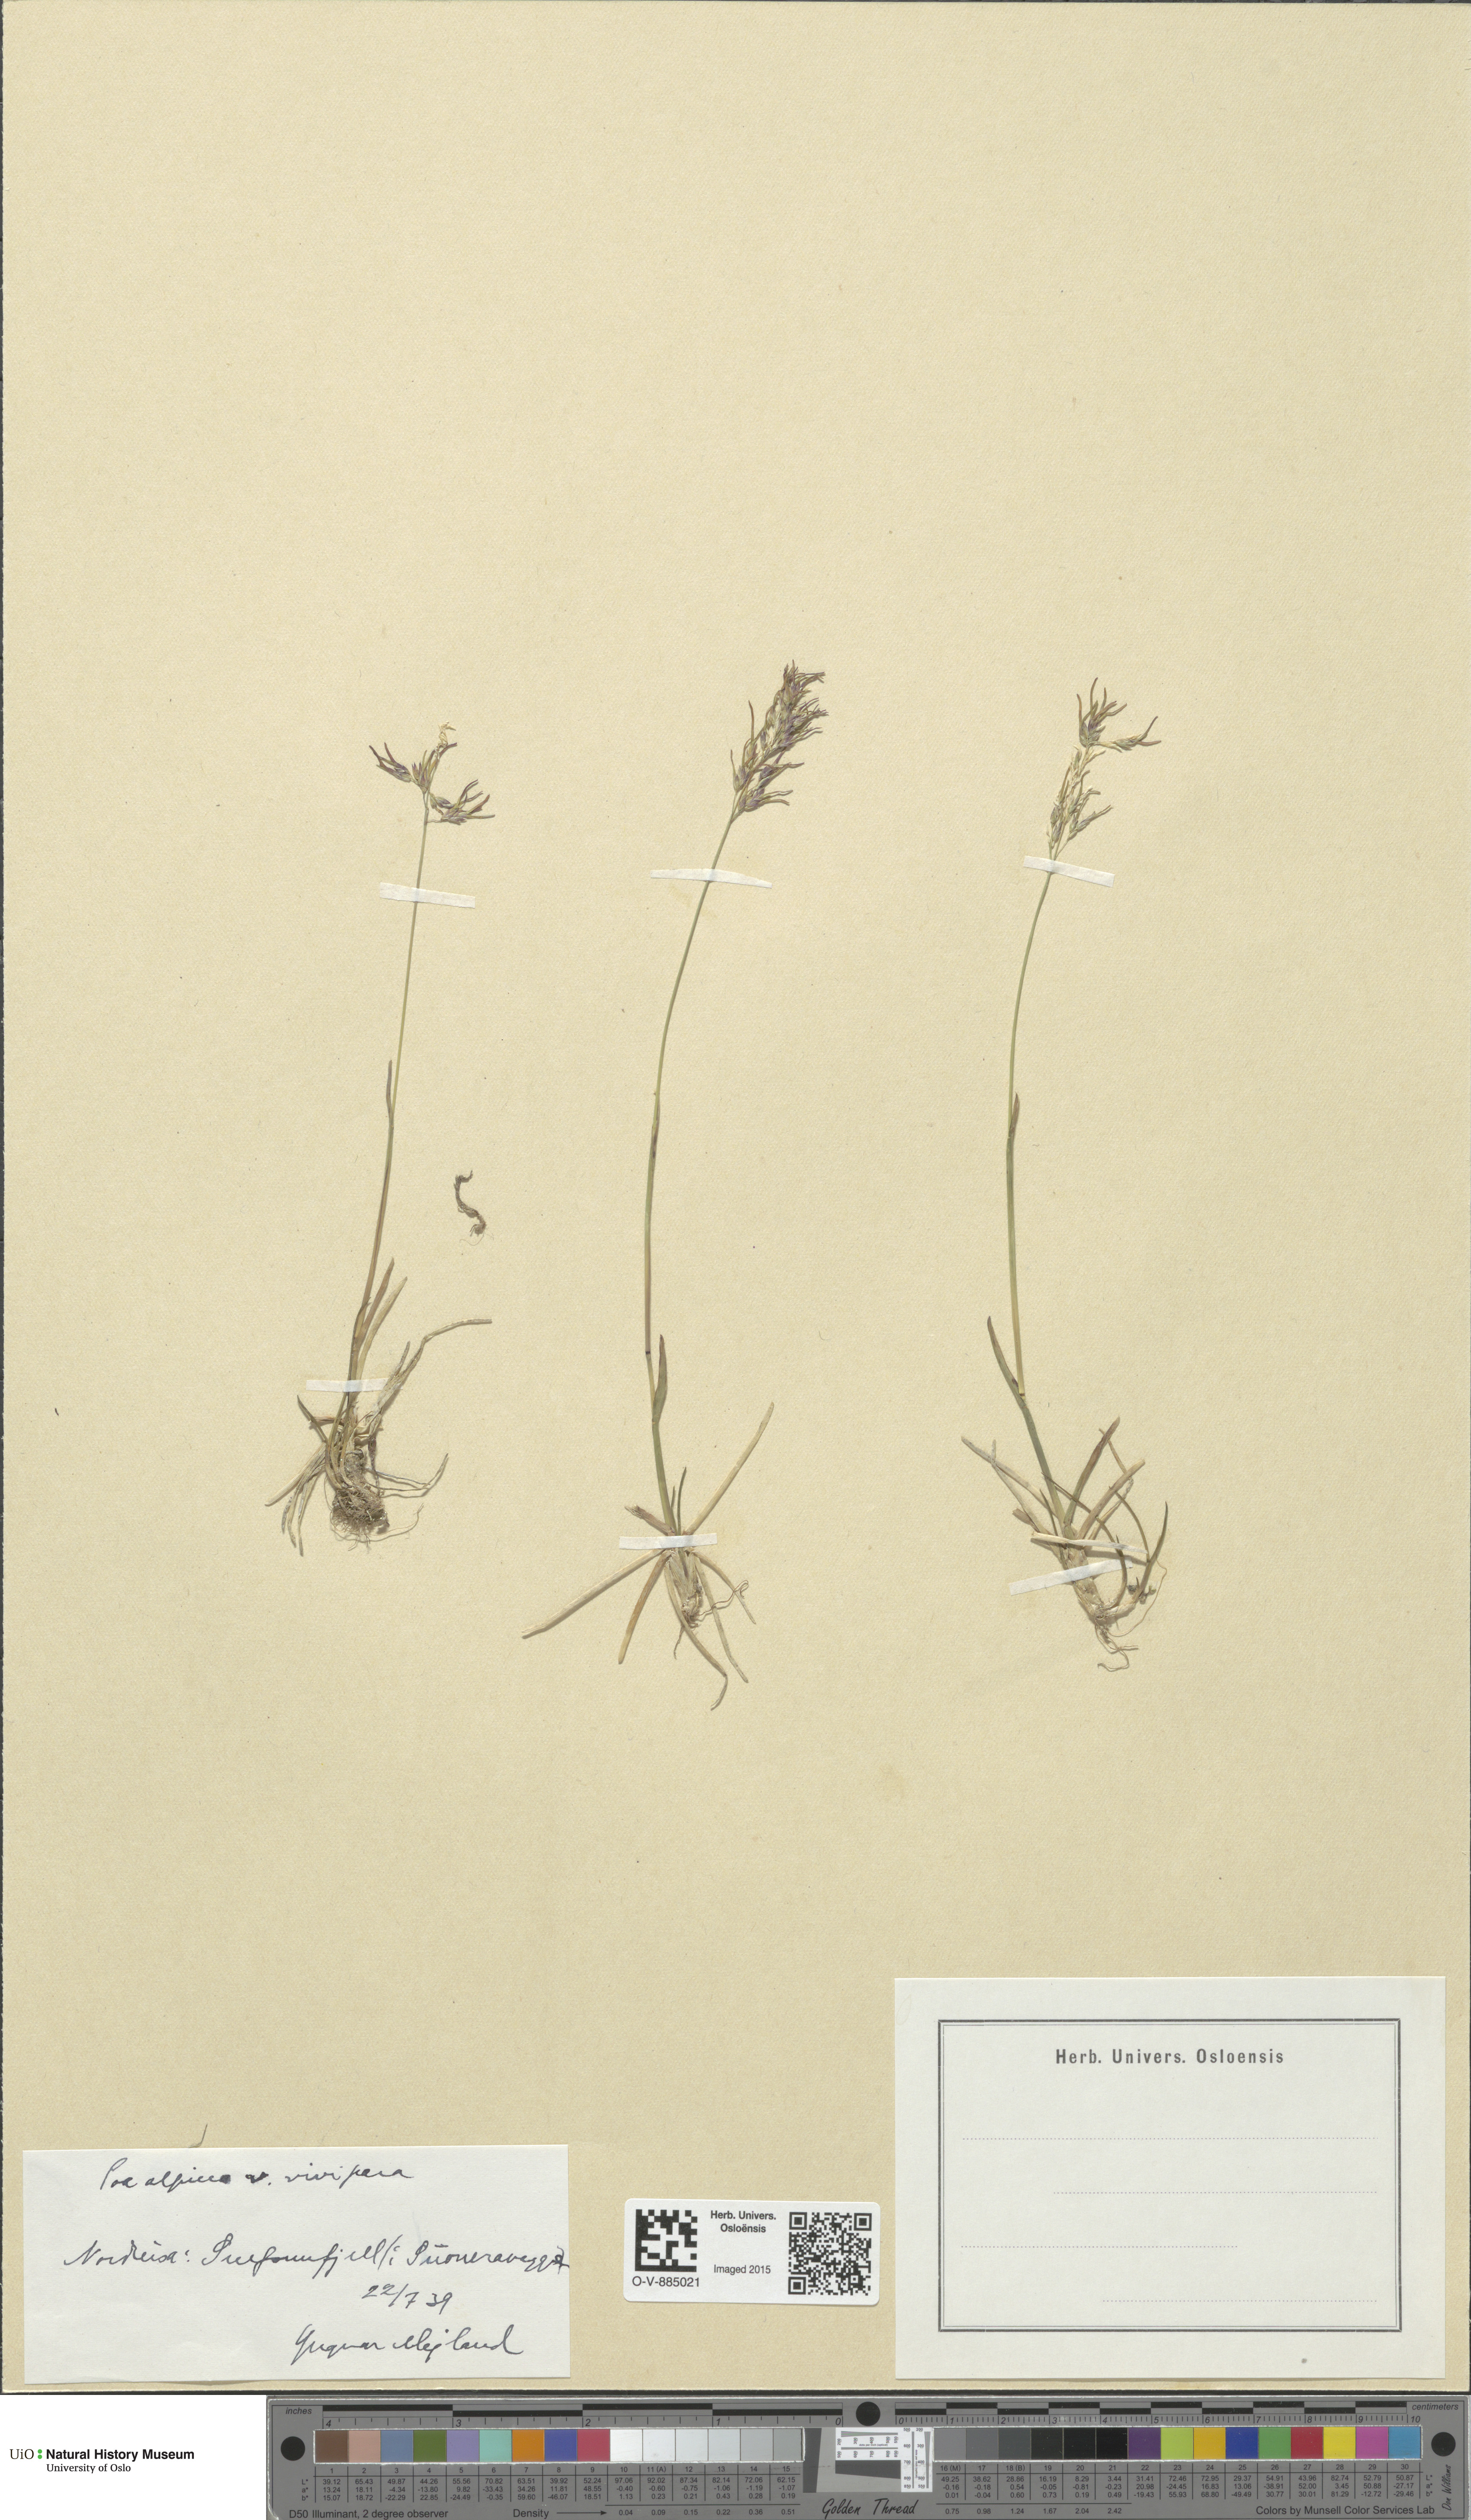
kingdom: Plantae
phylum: Tracheophyta
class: Liliopsida
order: Poales
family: Poaceae
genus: Poa
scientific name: Poa alpina
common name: Alpine bluegrass
